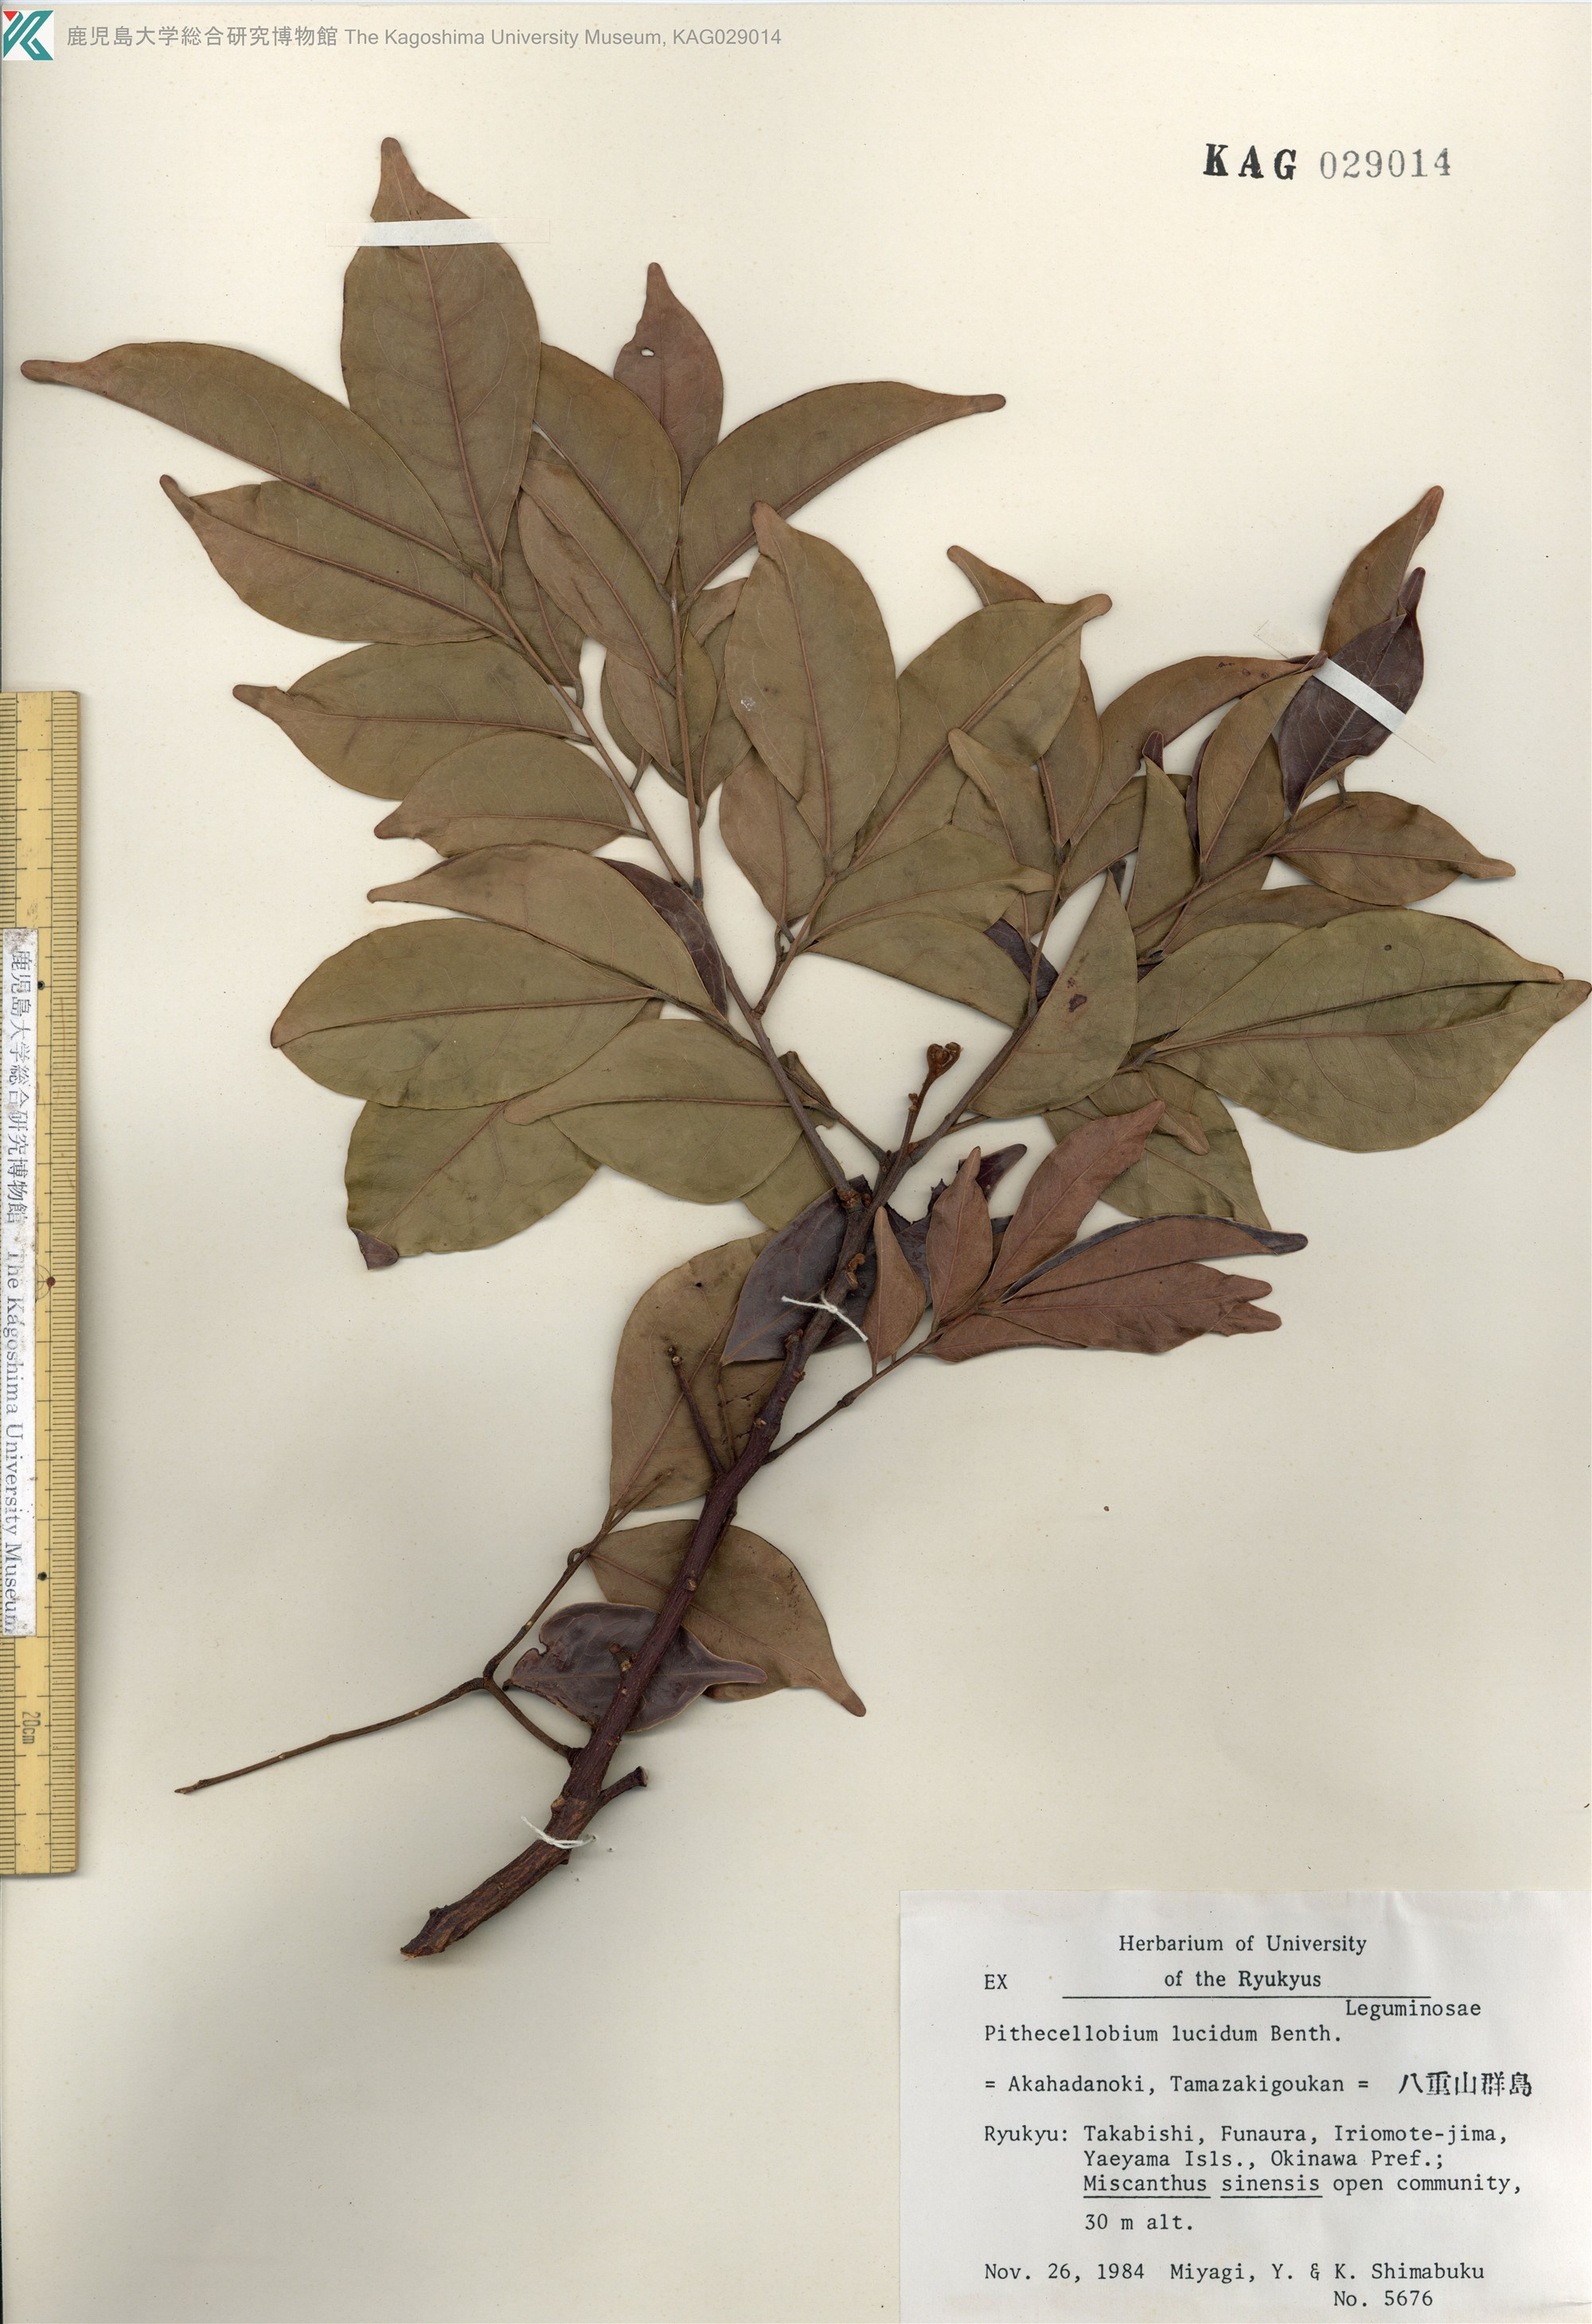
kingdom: Plantae
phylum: Tracheophyta
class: Magnoliopsida
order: Fabales
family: Fabaceae
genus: Archidendron
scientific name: Archidendron lucidum
